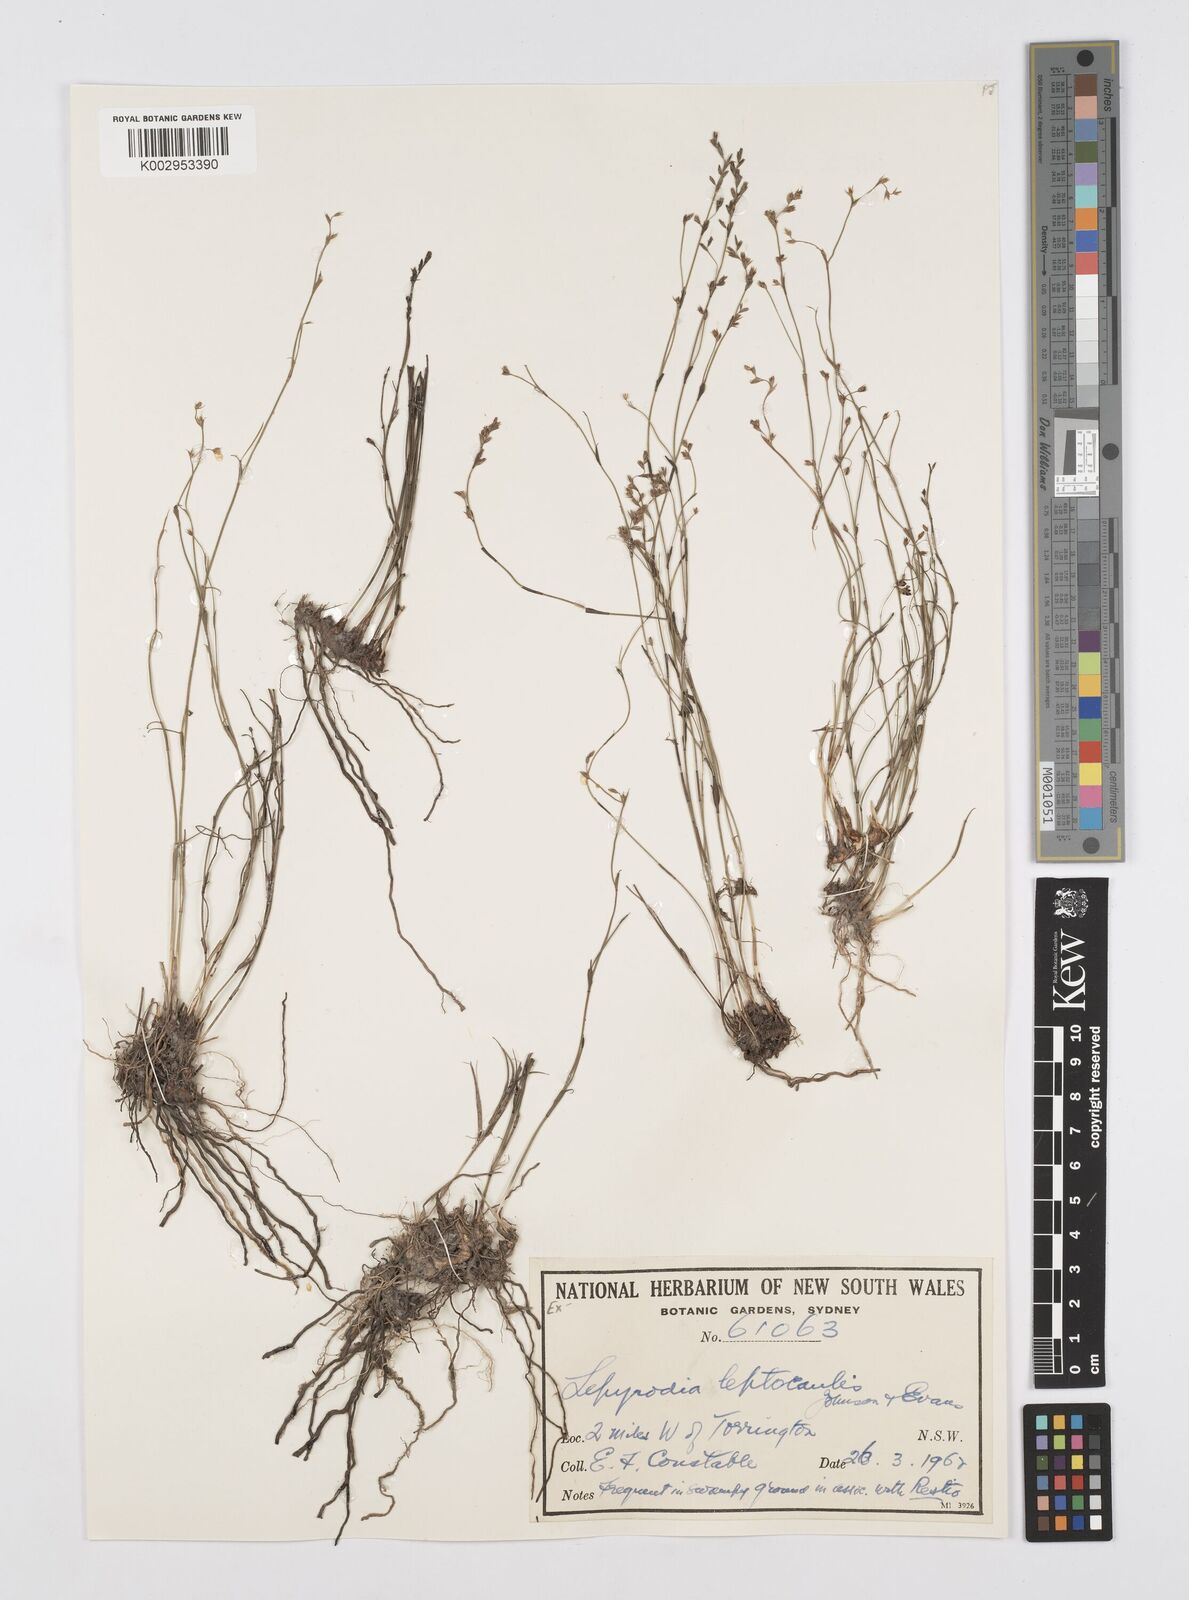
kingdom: Plantae
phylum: Tracheophyta
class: Liliopsida
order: Poales
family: Restionaceae
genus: Lepyrodia
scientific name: Lepyrodia leptocaulis
